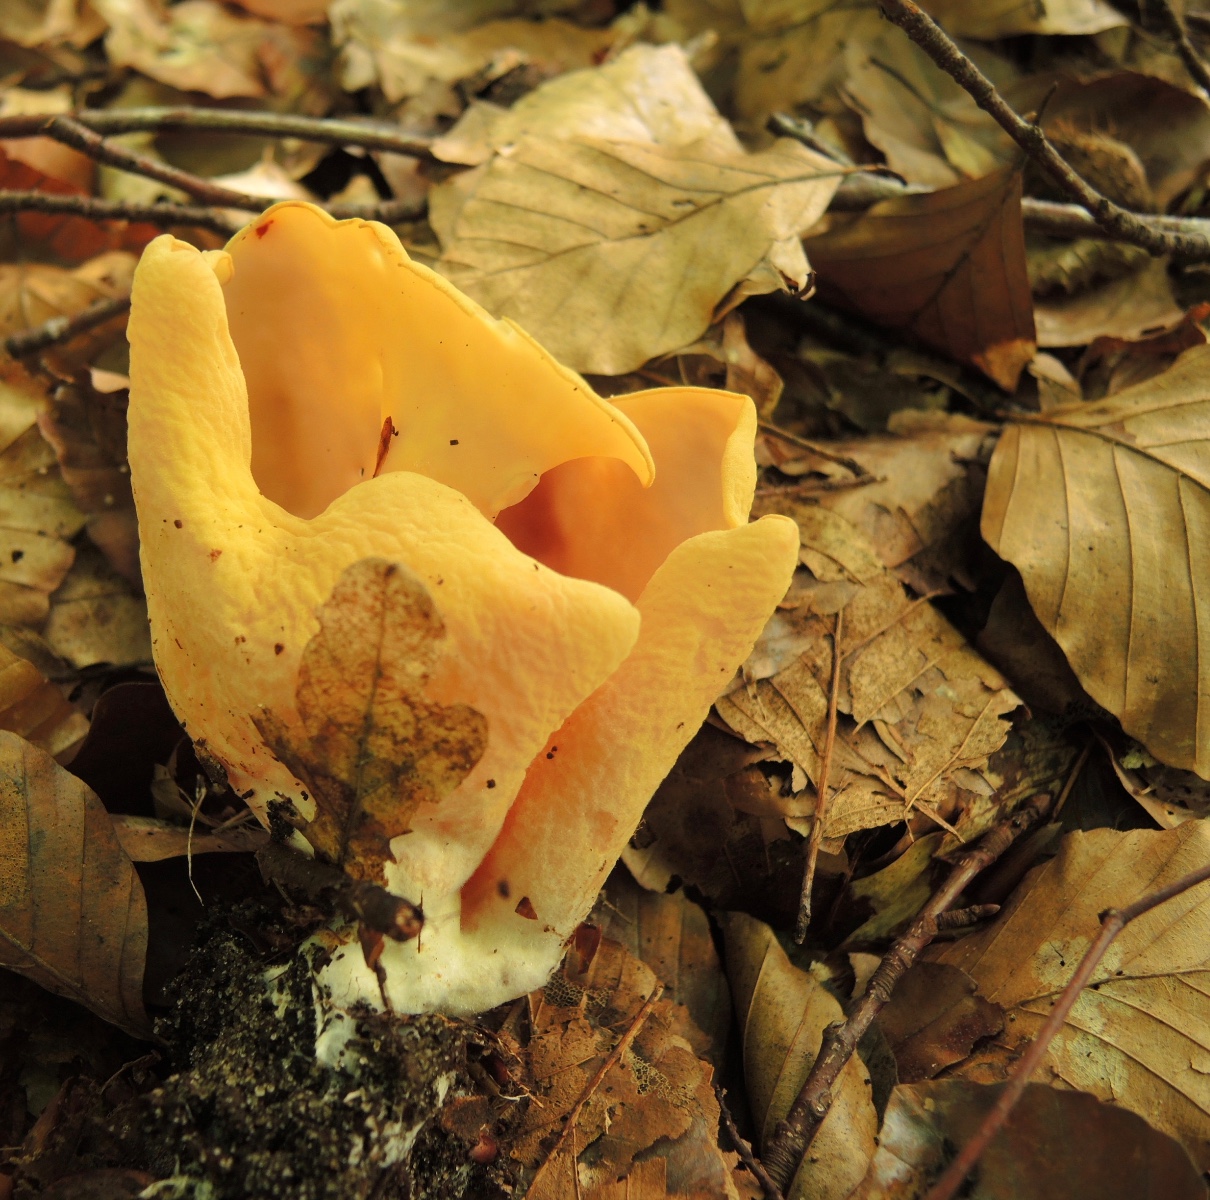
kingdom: Fungi
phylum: Ascomycota
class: Pezizomycetes
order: Pezizales
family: Otideaceae
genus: Otidea
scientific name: Otidea onotica
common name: æsel-ørebæger
